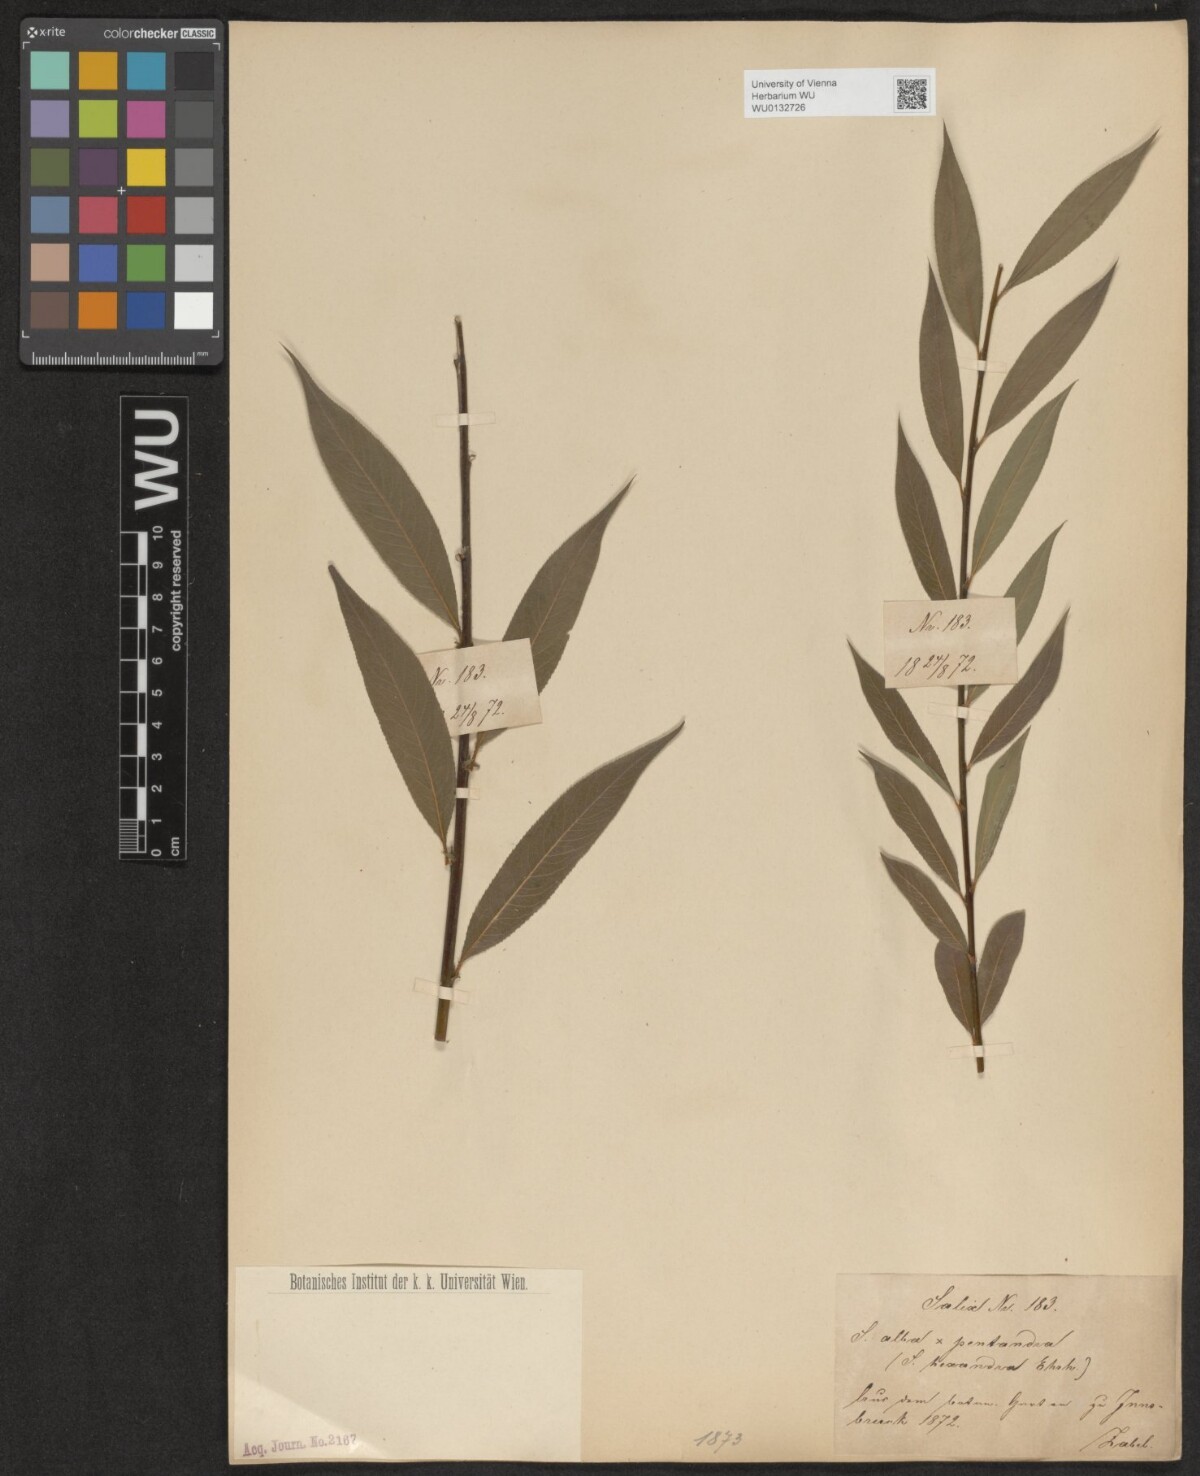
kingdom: Plantae
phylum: Tracheophyta
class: Magnoliopsida
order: Malpighiales
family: Salicaceae
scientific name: Salicaceae
